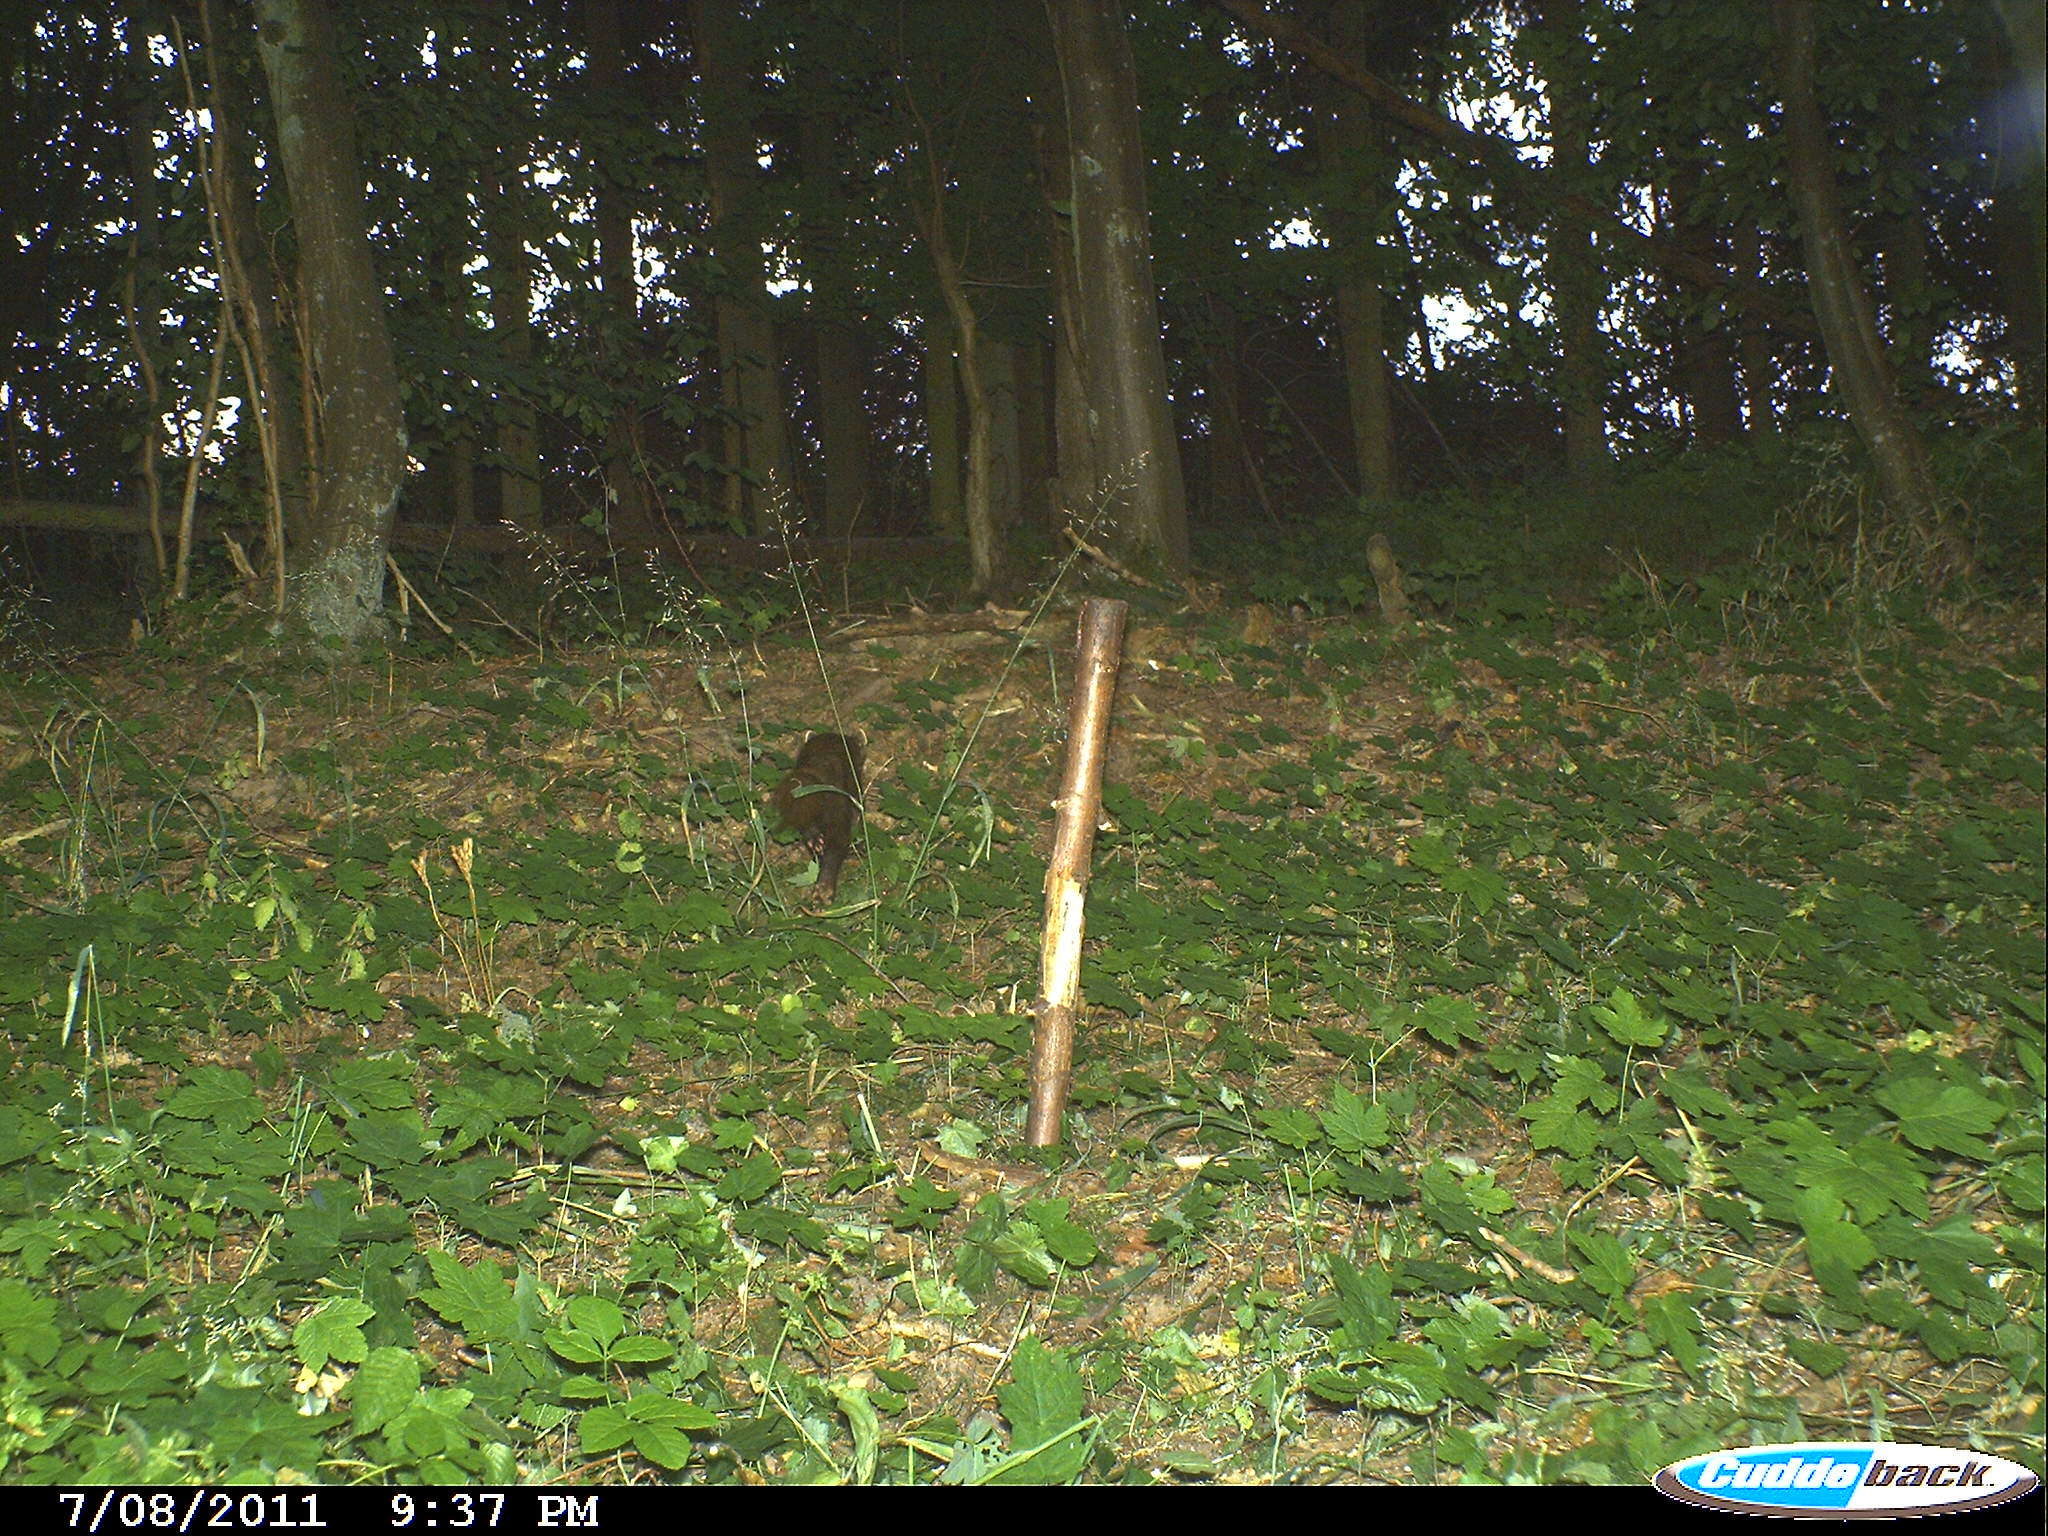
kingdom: Animalia
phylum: Chordata
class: Mammalia
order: Carnivora
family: Mustelidae
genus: Martes
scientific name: Martes martes
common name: European pine marten
